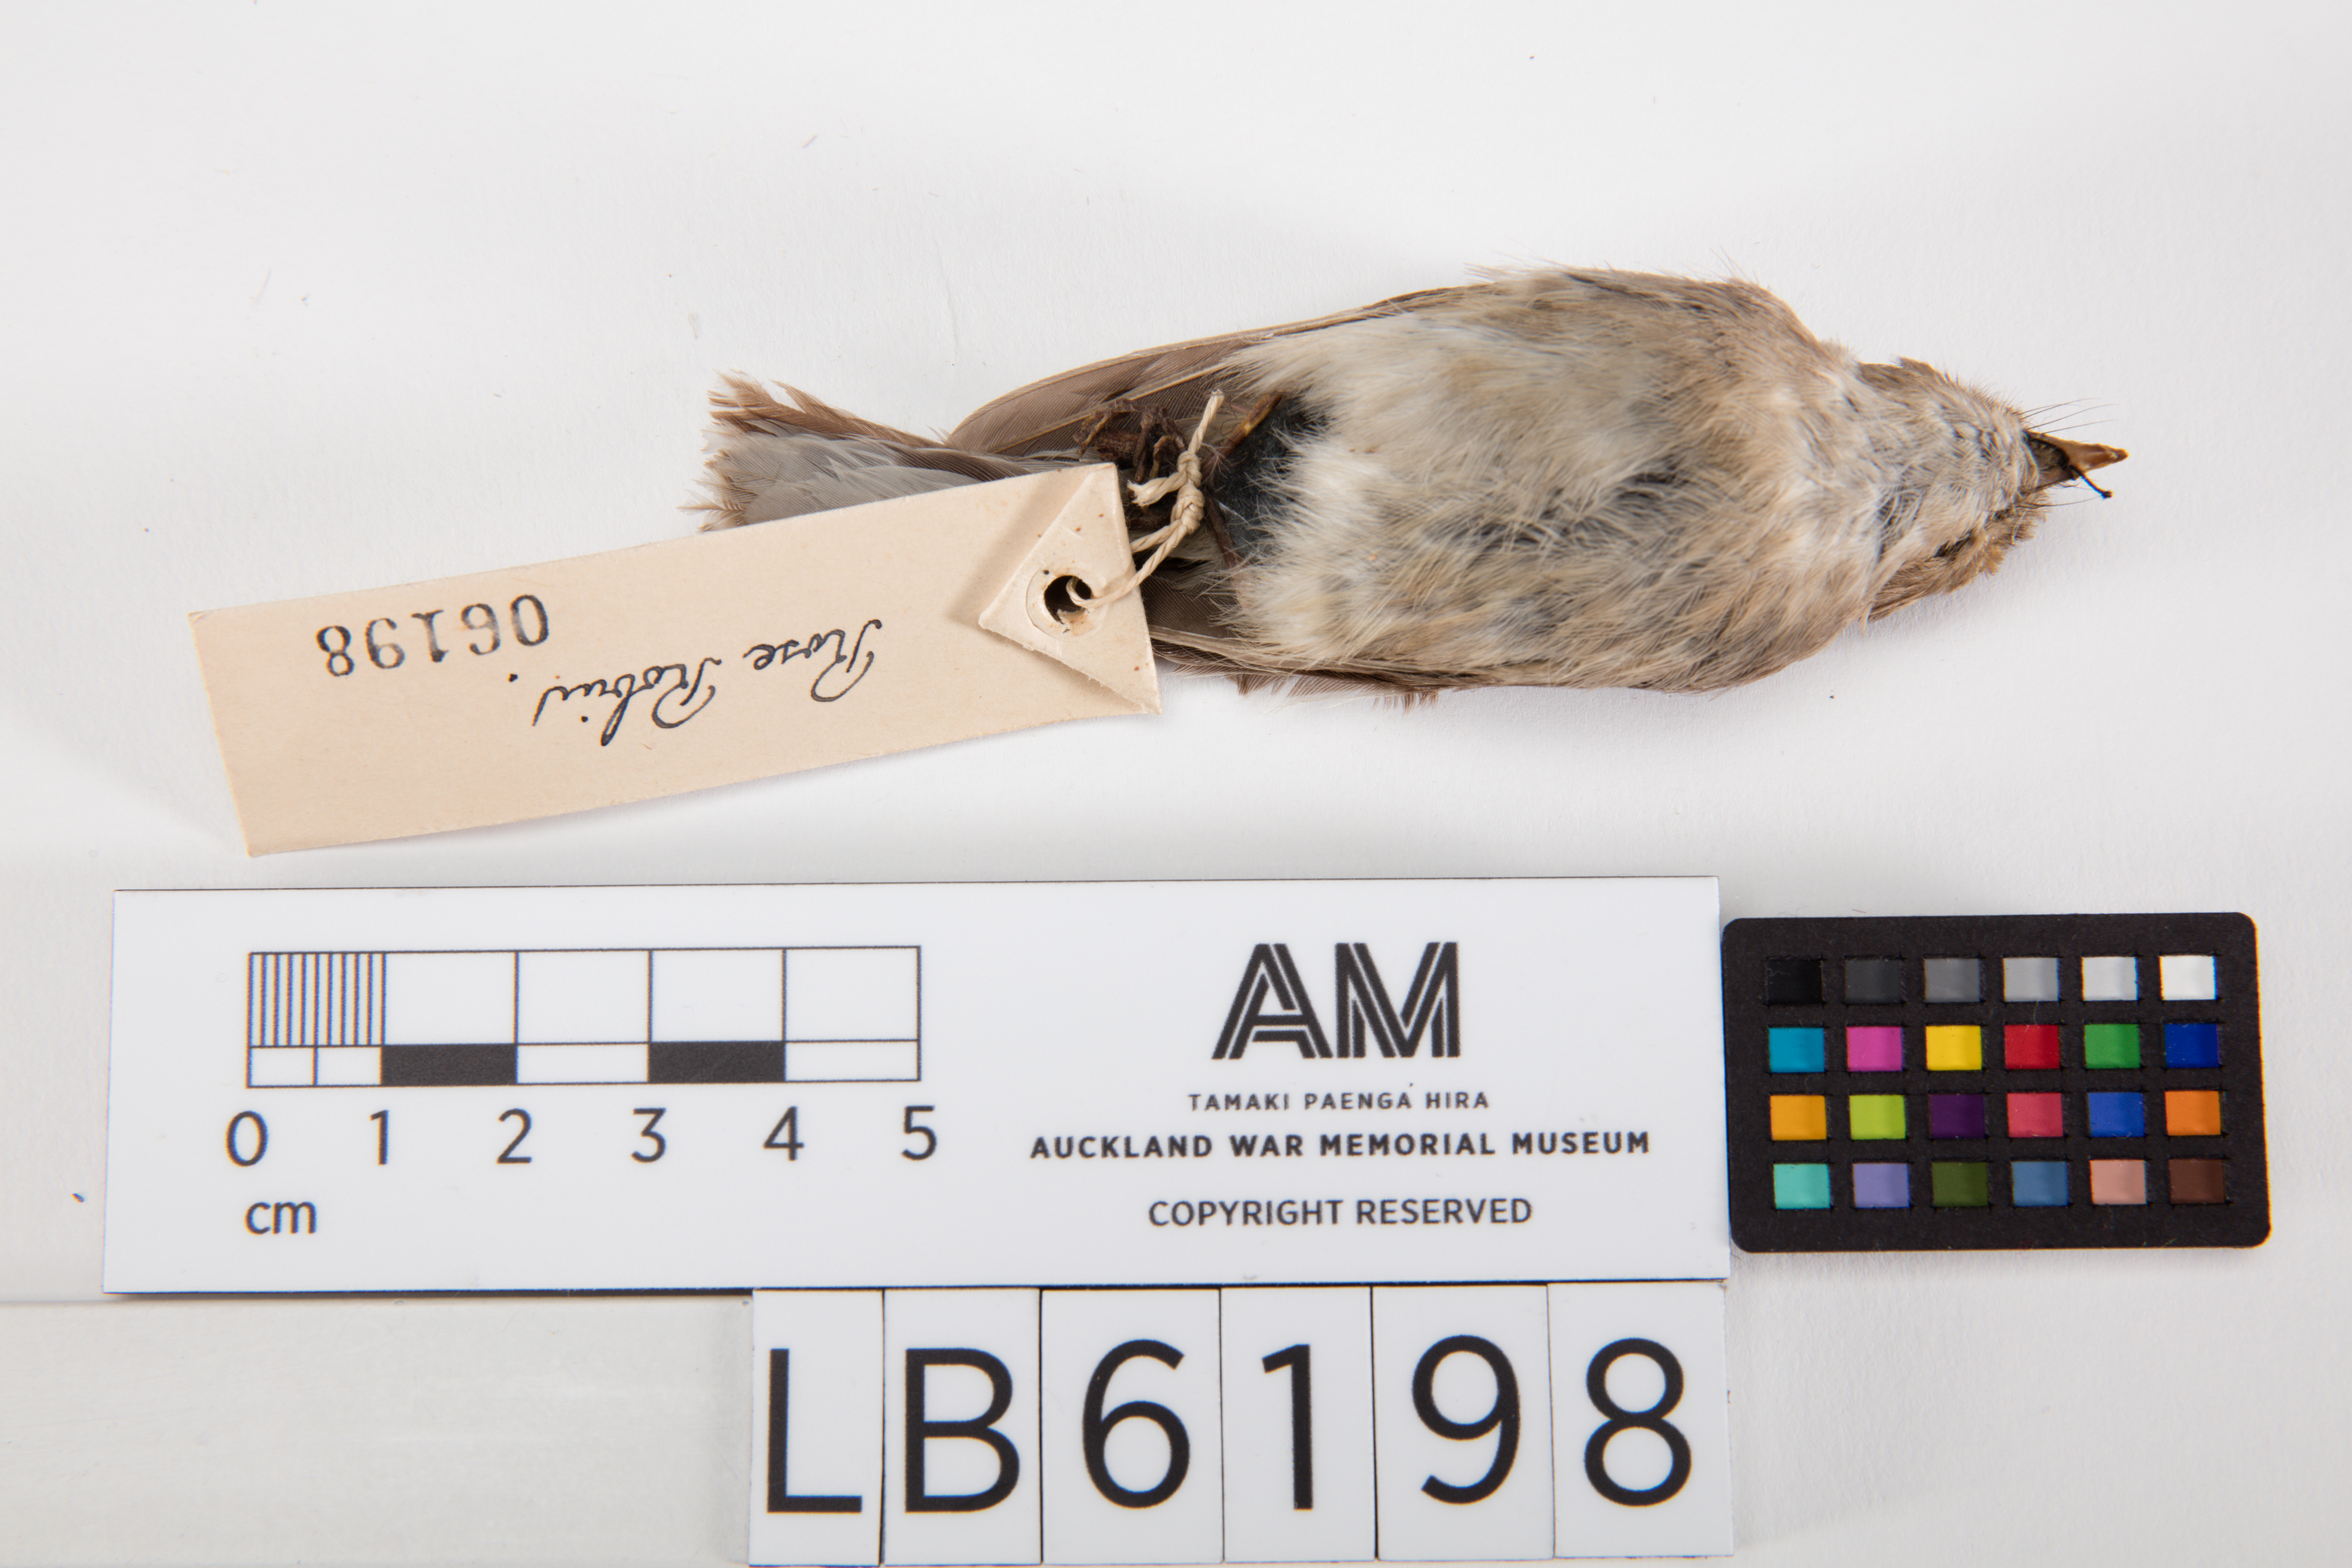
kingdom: Animalia
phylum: Chordata
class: Aves
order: Passeriformes
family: Petroicidae
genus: Petroica
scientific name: Petroica rosea
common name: Rose robin
